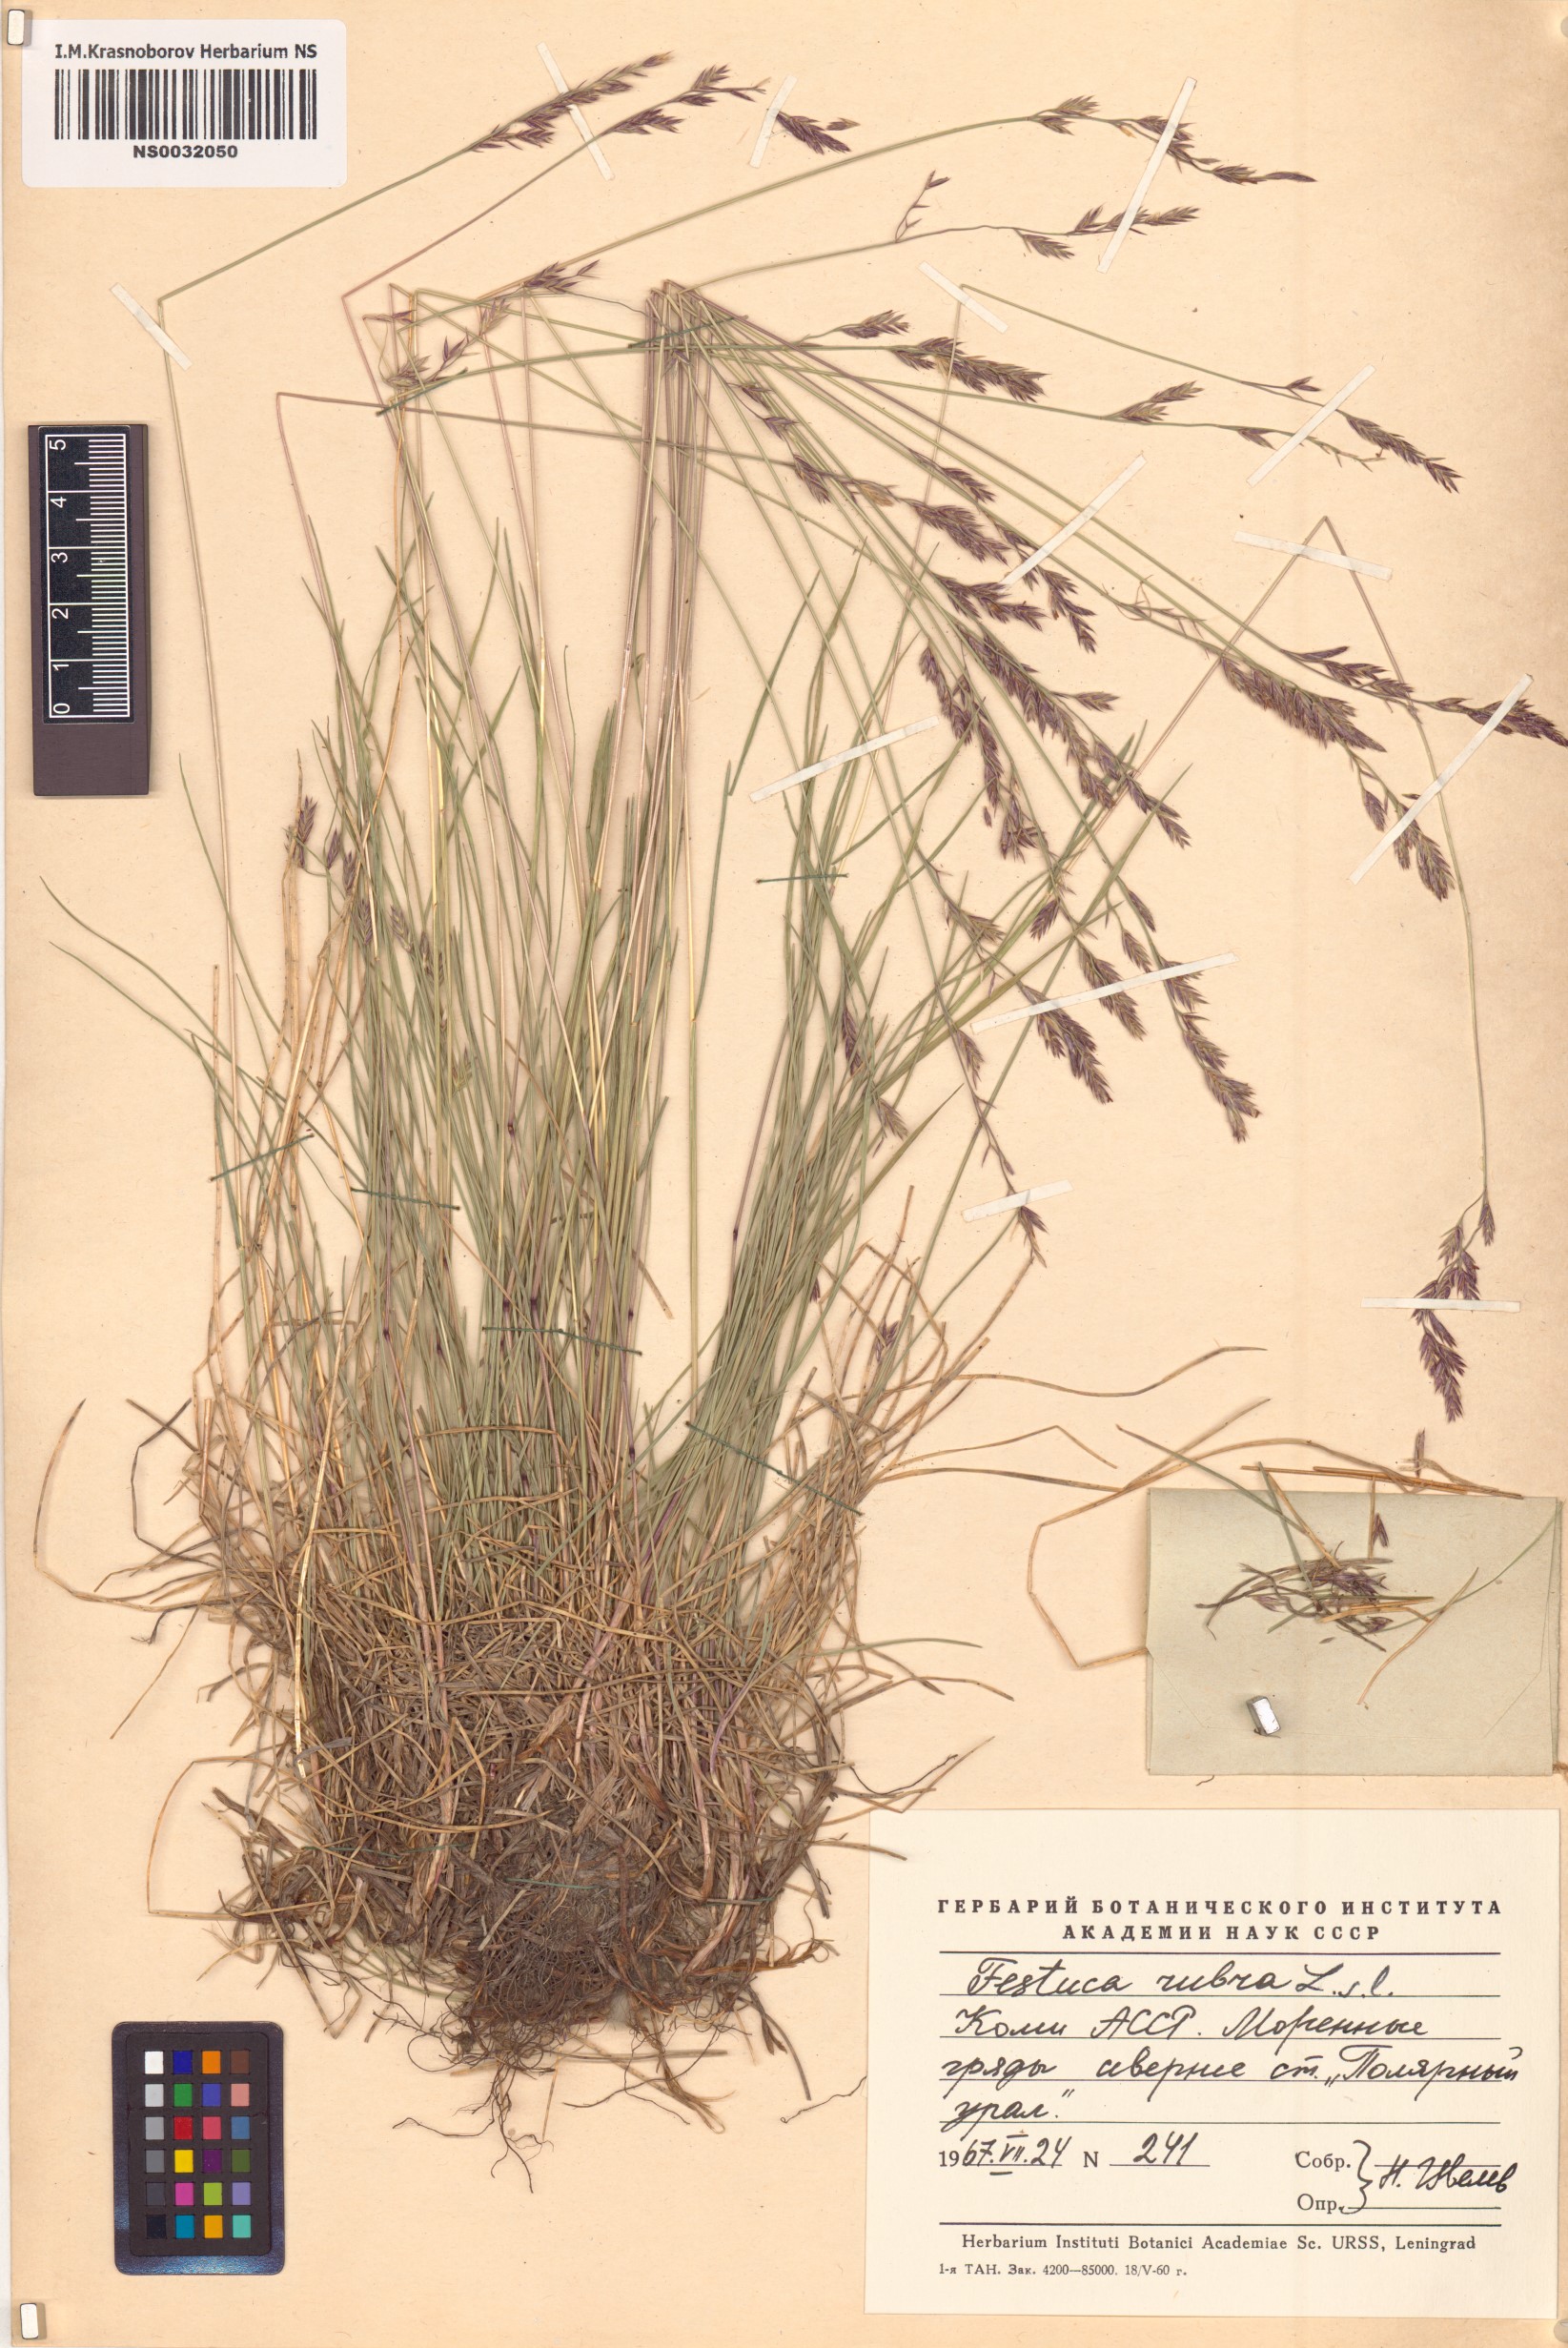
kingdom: Plantae
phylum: Tracheophyta
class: Liliopsida
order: Poales
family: Poaceae
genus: Festuca
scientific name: Festuca rubra
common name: Red fescue
